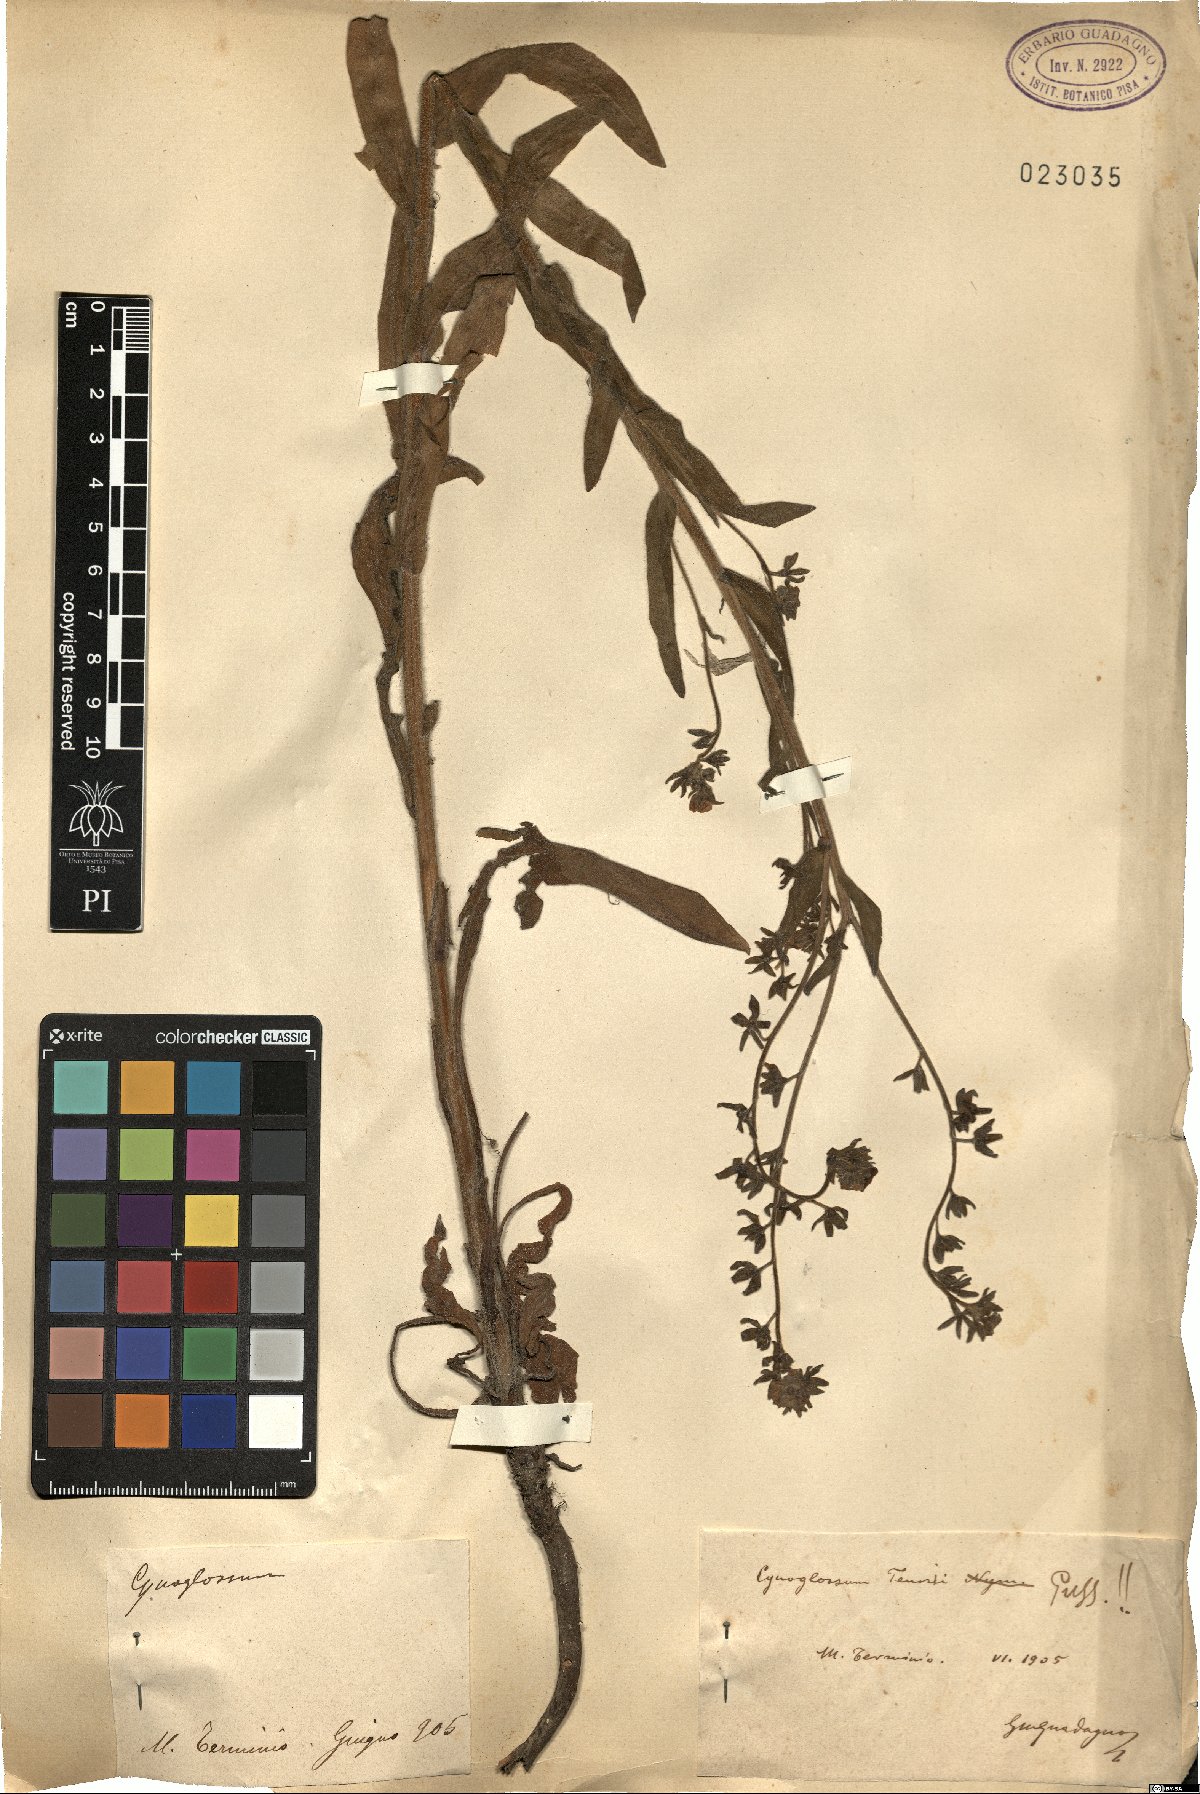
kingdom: Plantae
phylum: Tracheophyta
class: Magnoliopsida
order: Boraginales
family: Boraginaceae
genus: Cynoglossum
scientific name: Cynoglossum nebrodense
